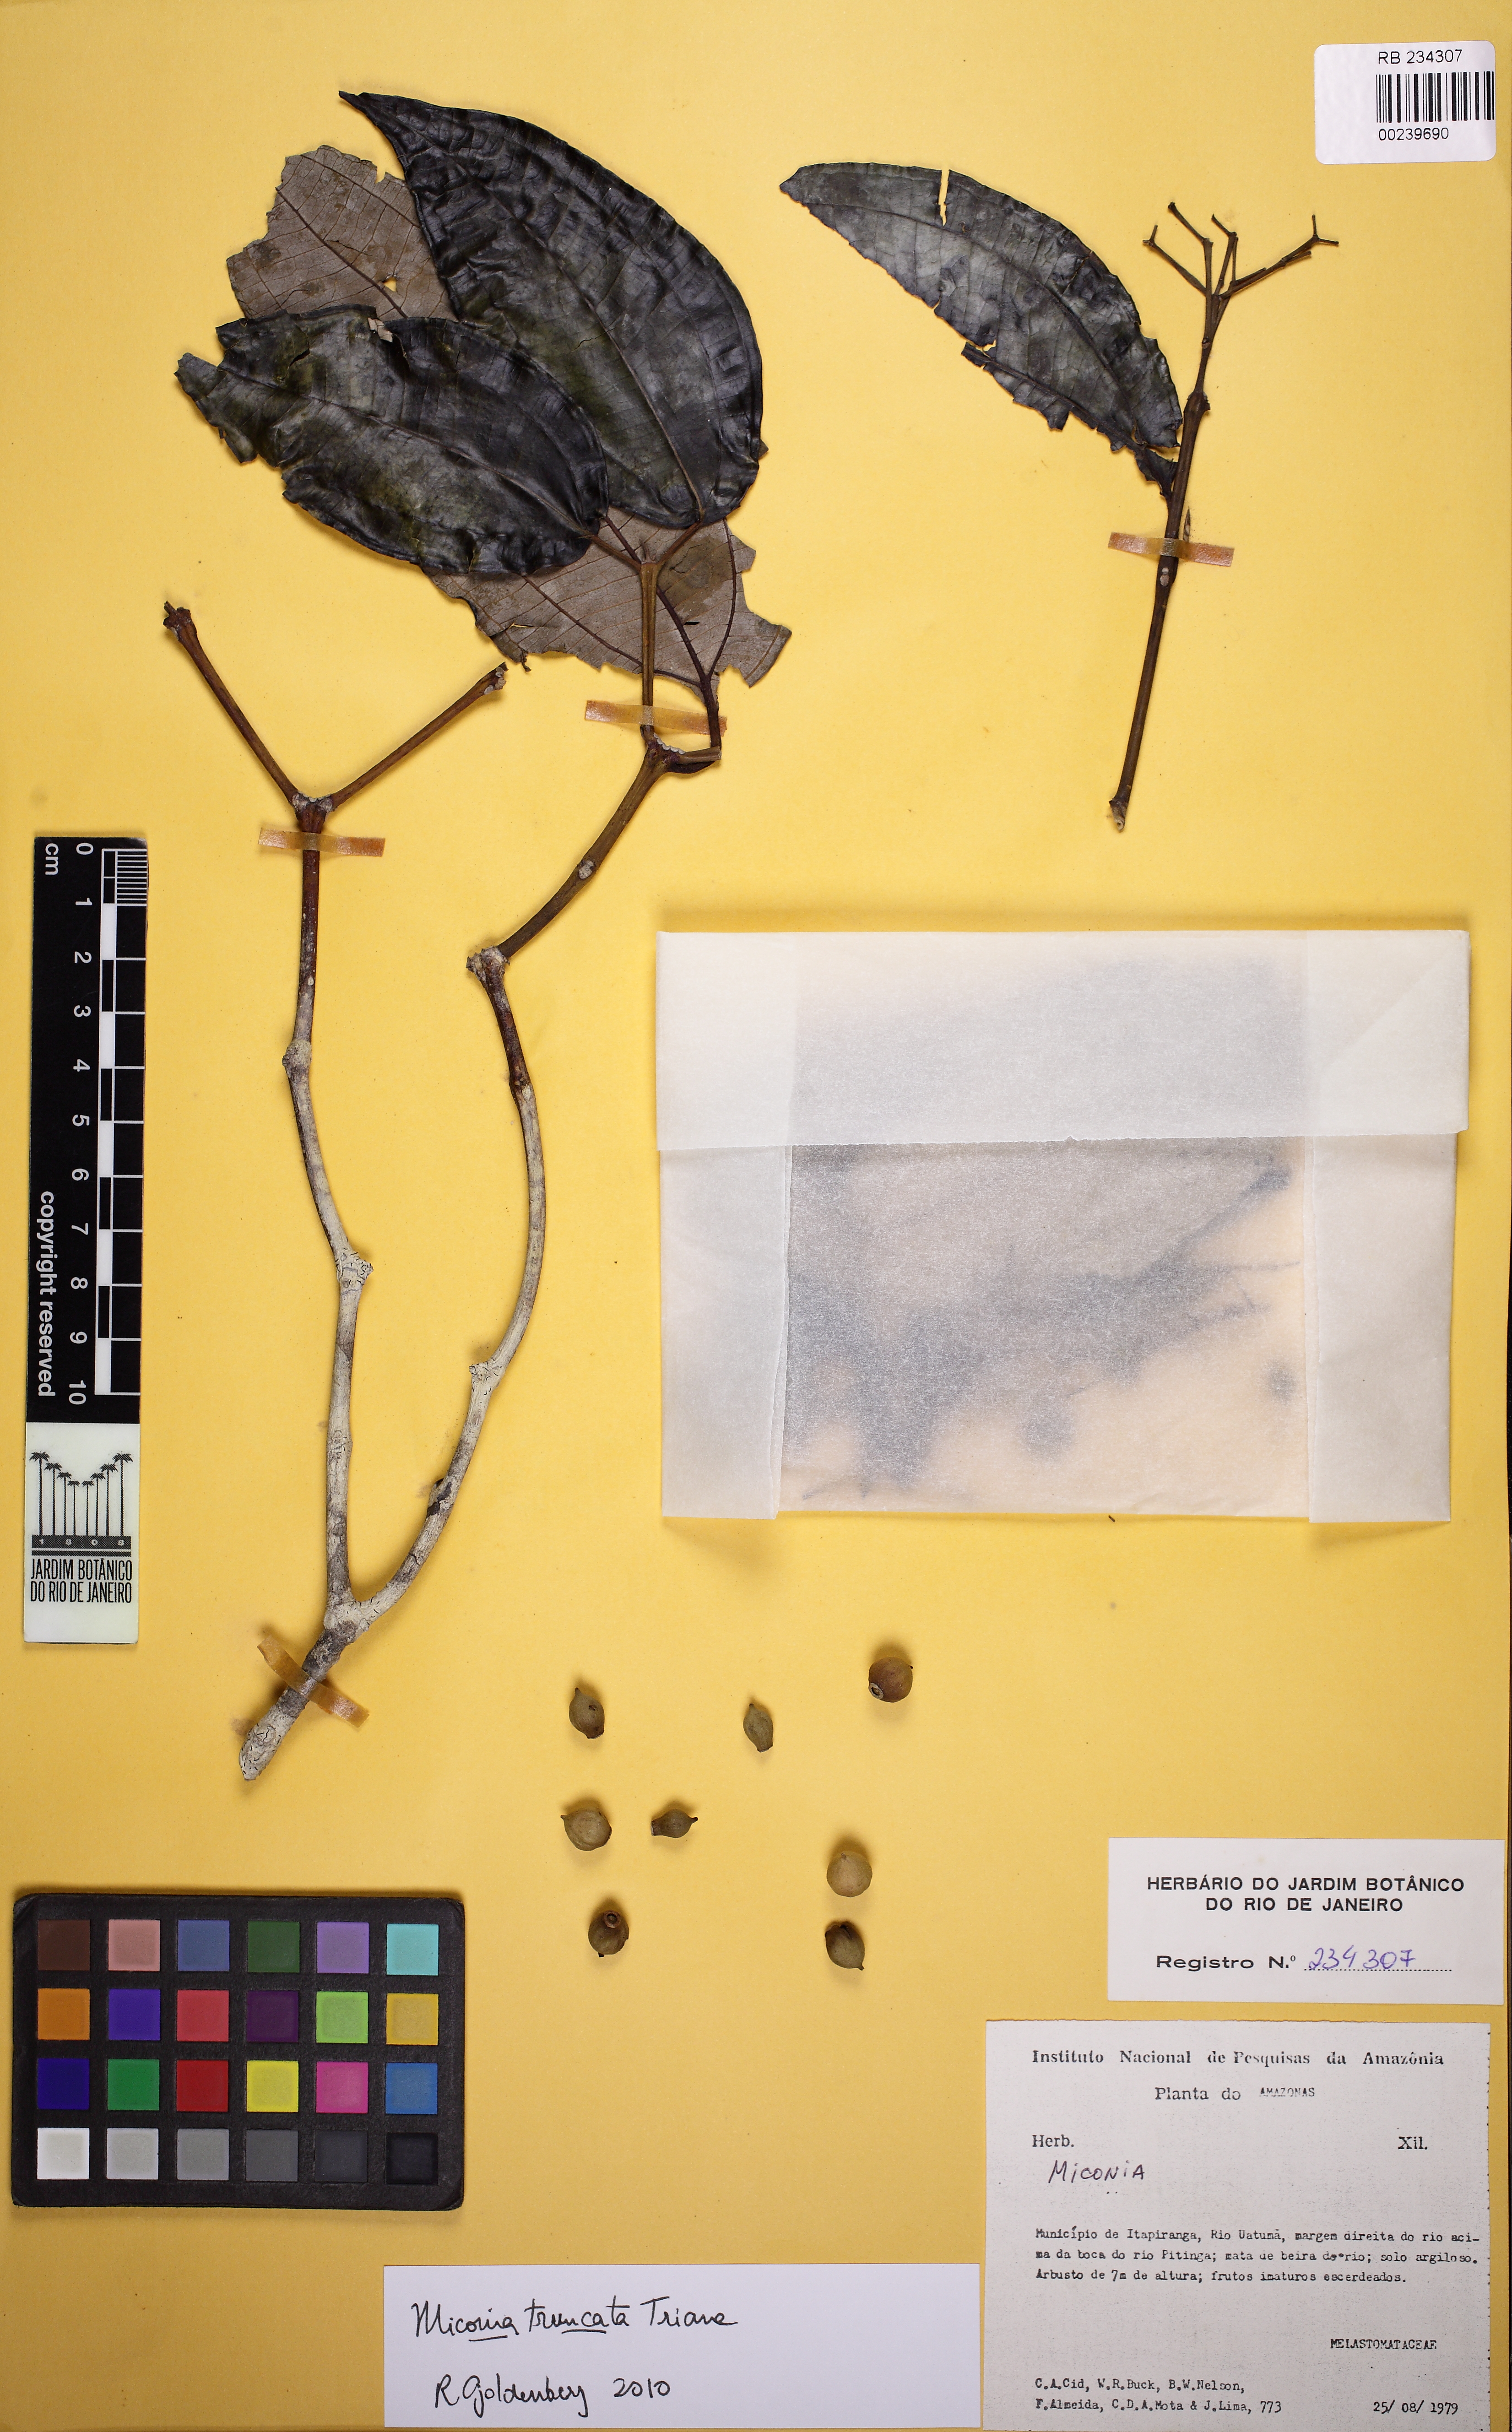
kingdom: Plantae
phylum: Tracheophyta
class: Magnoliopsida
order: Myrtales
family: Melastomataceae
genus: Miconia
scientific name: Miconia truncata
